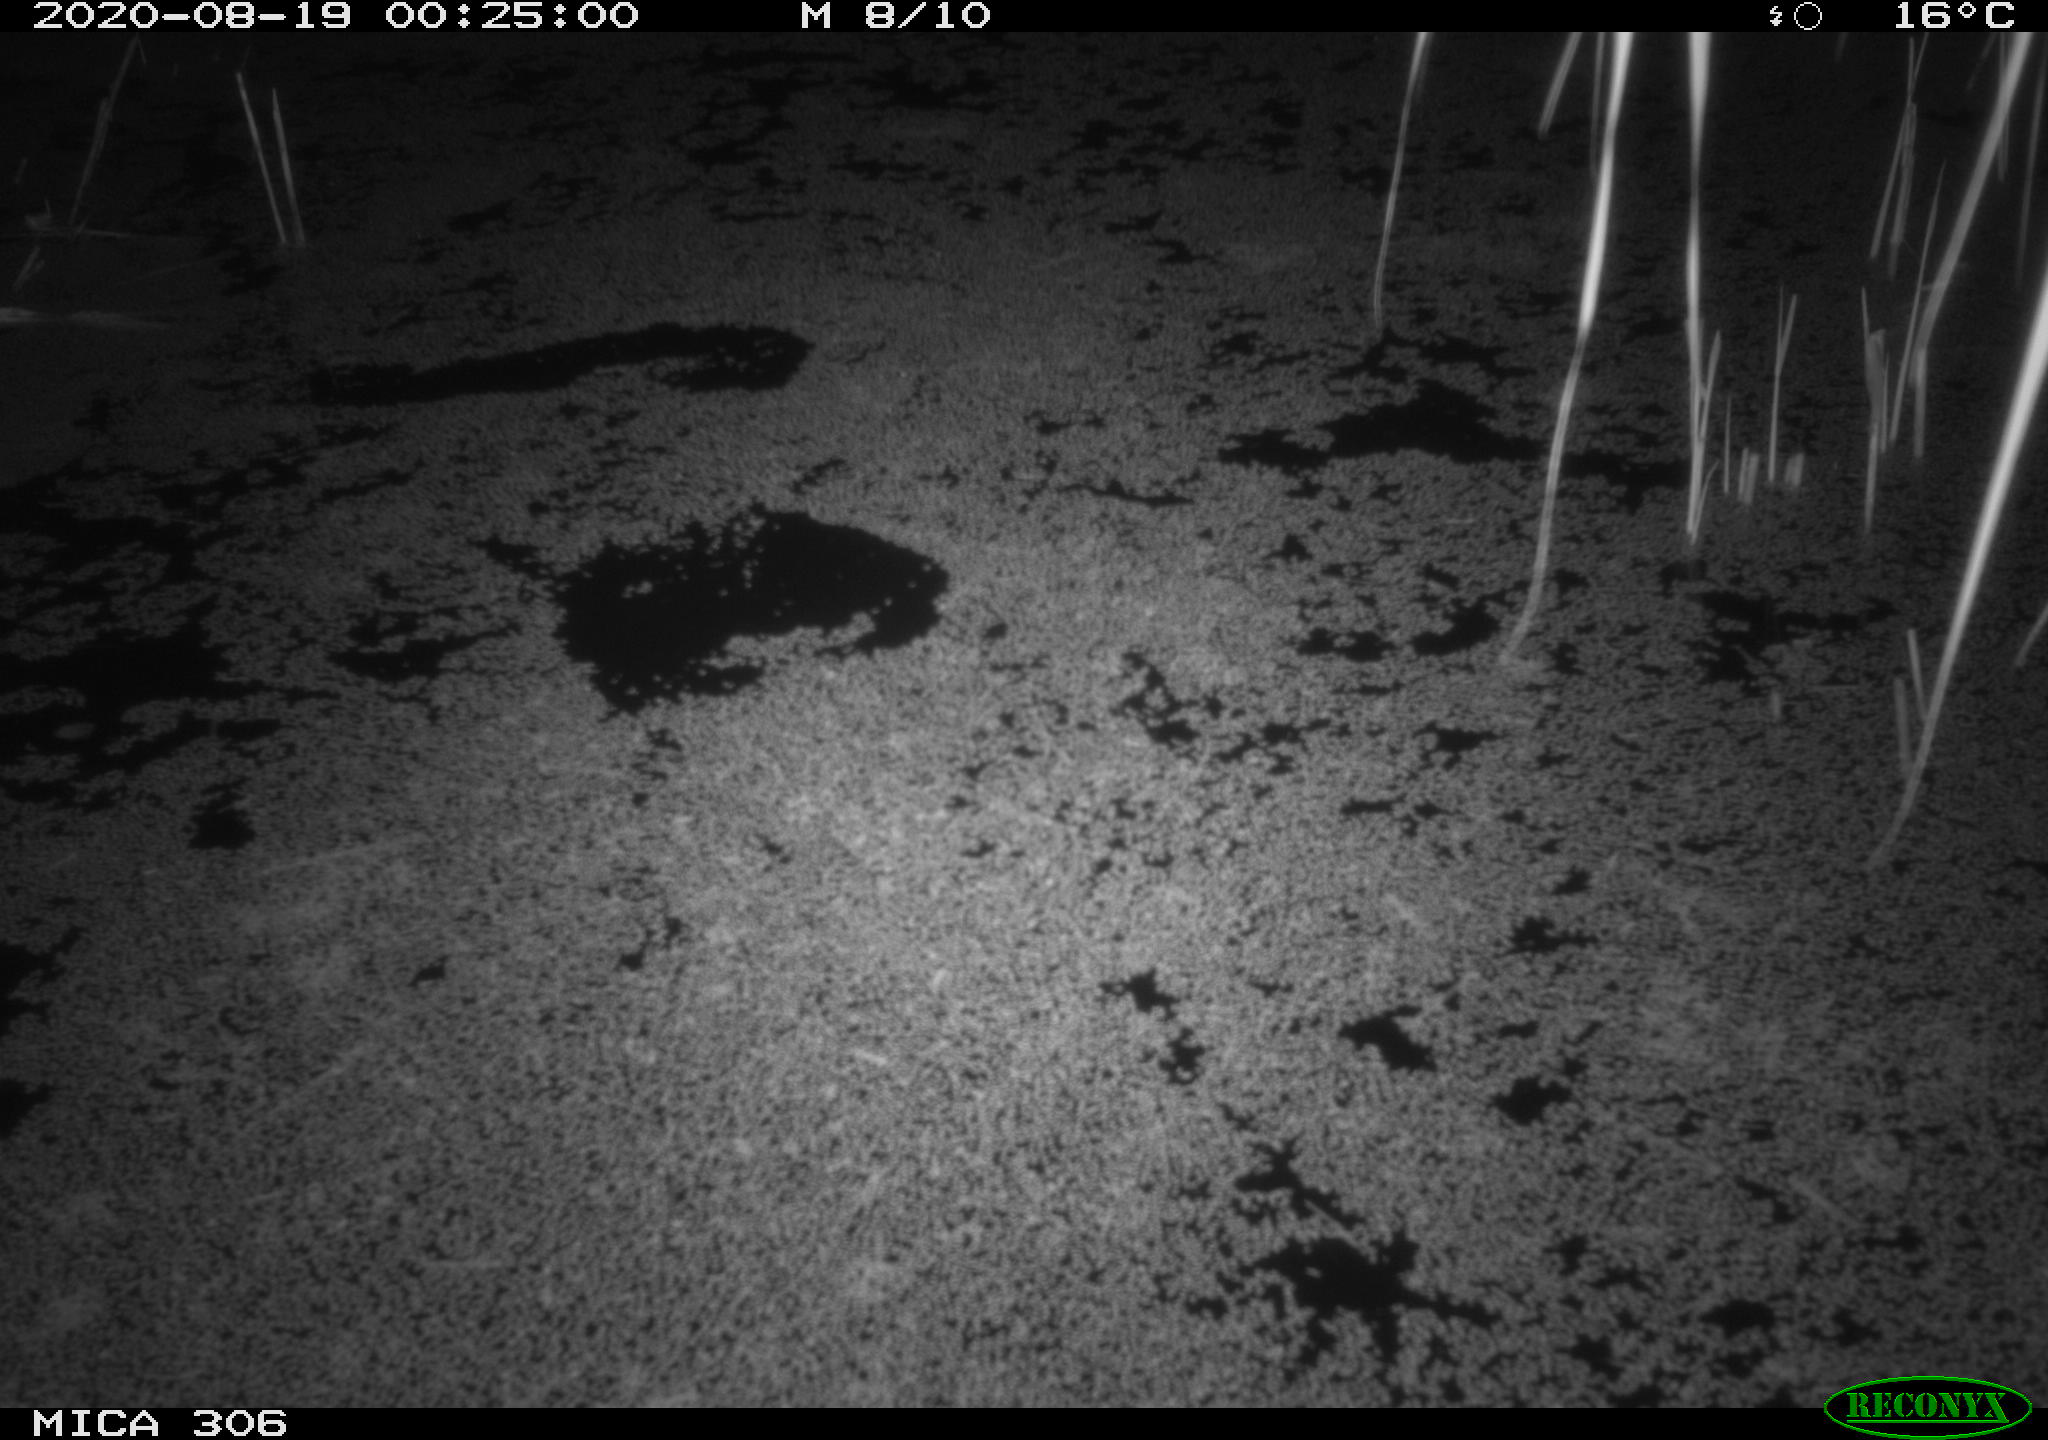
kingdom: Animalia
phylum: Chordata
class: Mammalia
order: Rodentia
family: Muridae
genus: Rattus
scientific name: Rattus norvegicus
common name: Brown rat
